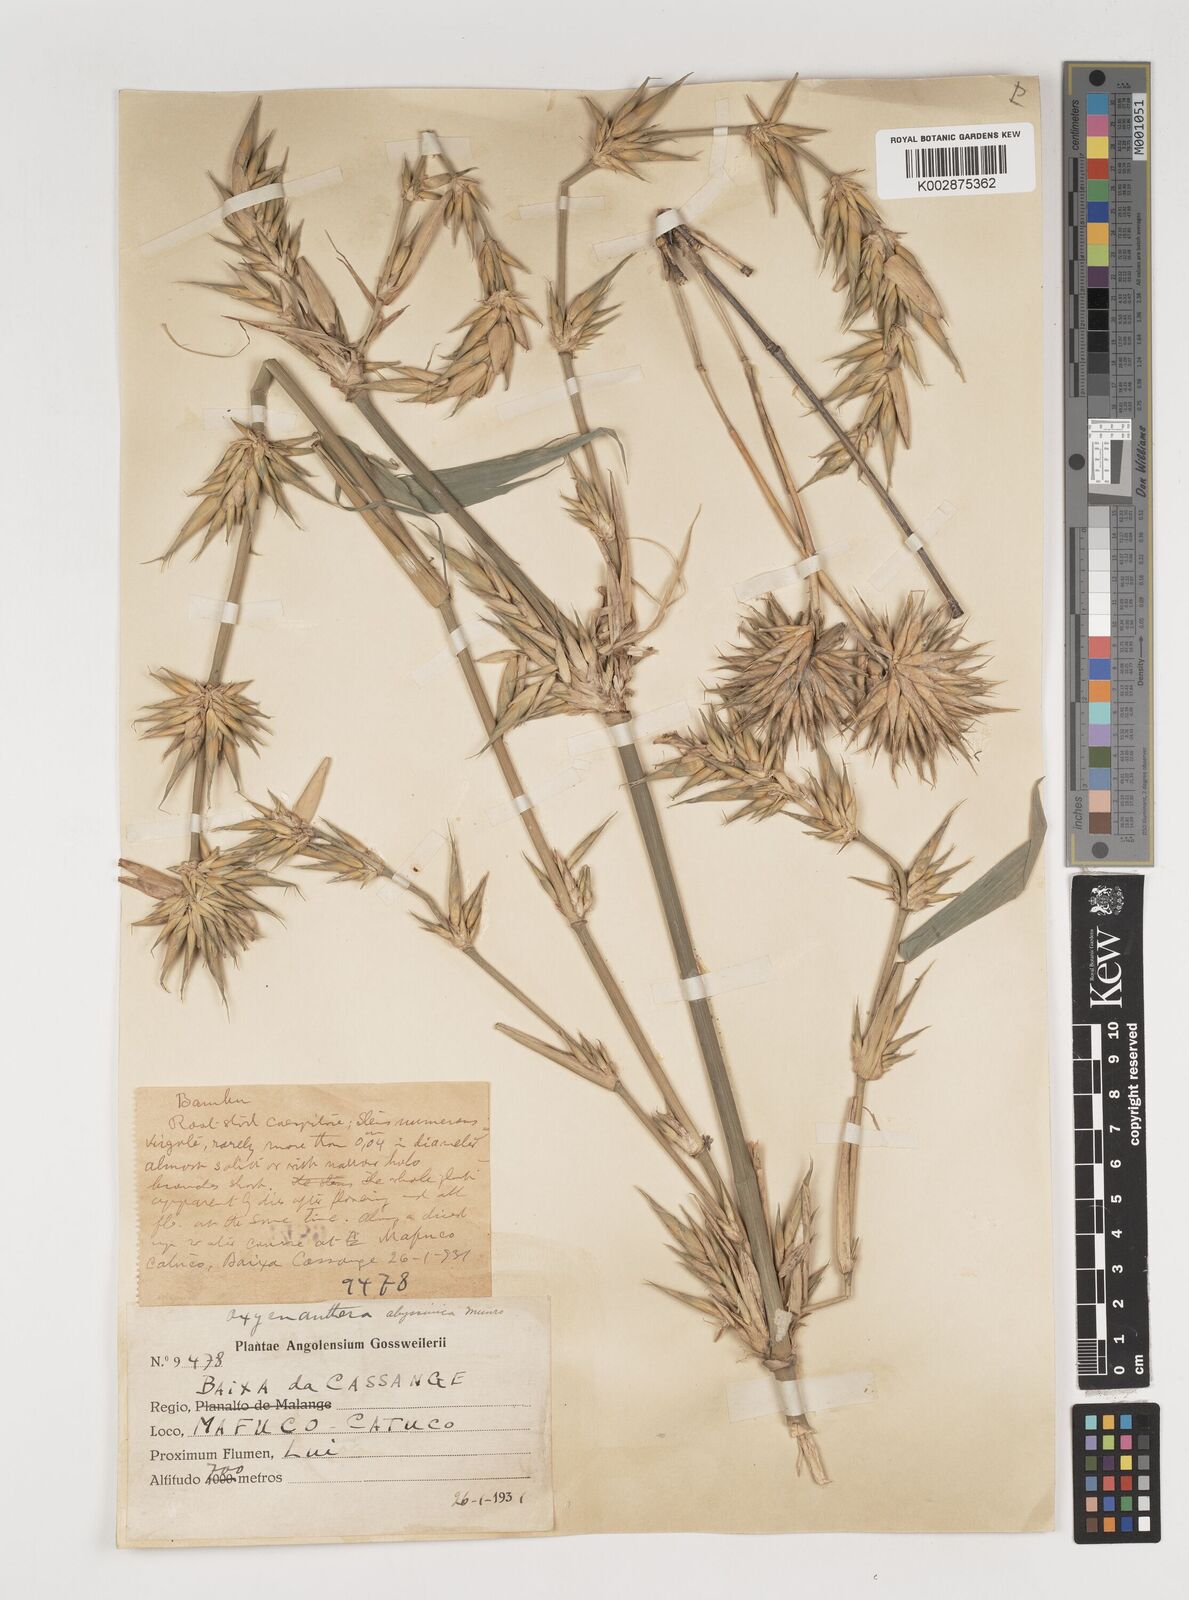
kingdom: Plantae
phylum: Tracheophyta
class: Liliopsida
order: Poales
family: Poaceae
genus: Oxytenanthera
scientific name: Oxytenanthera abyssinica
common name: Wine bamboo
